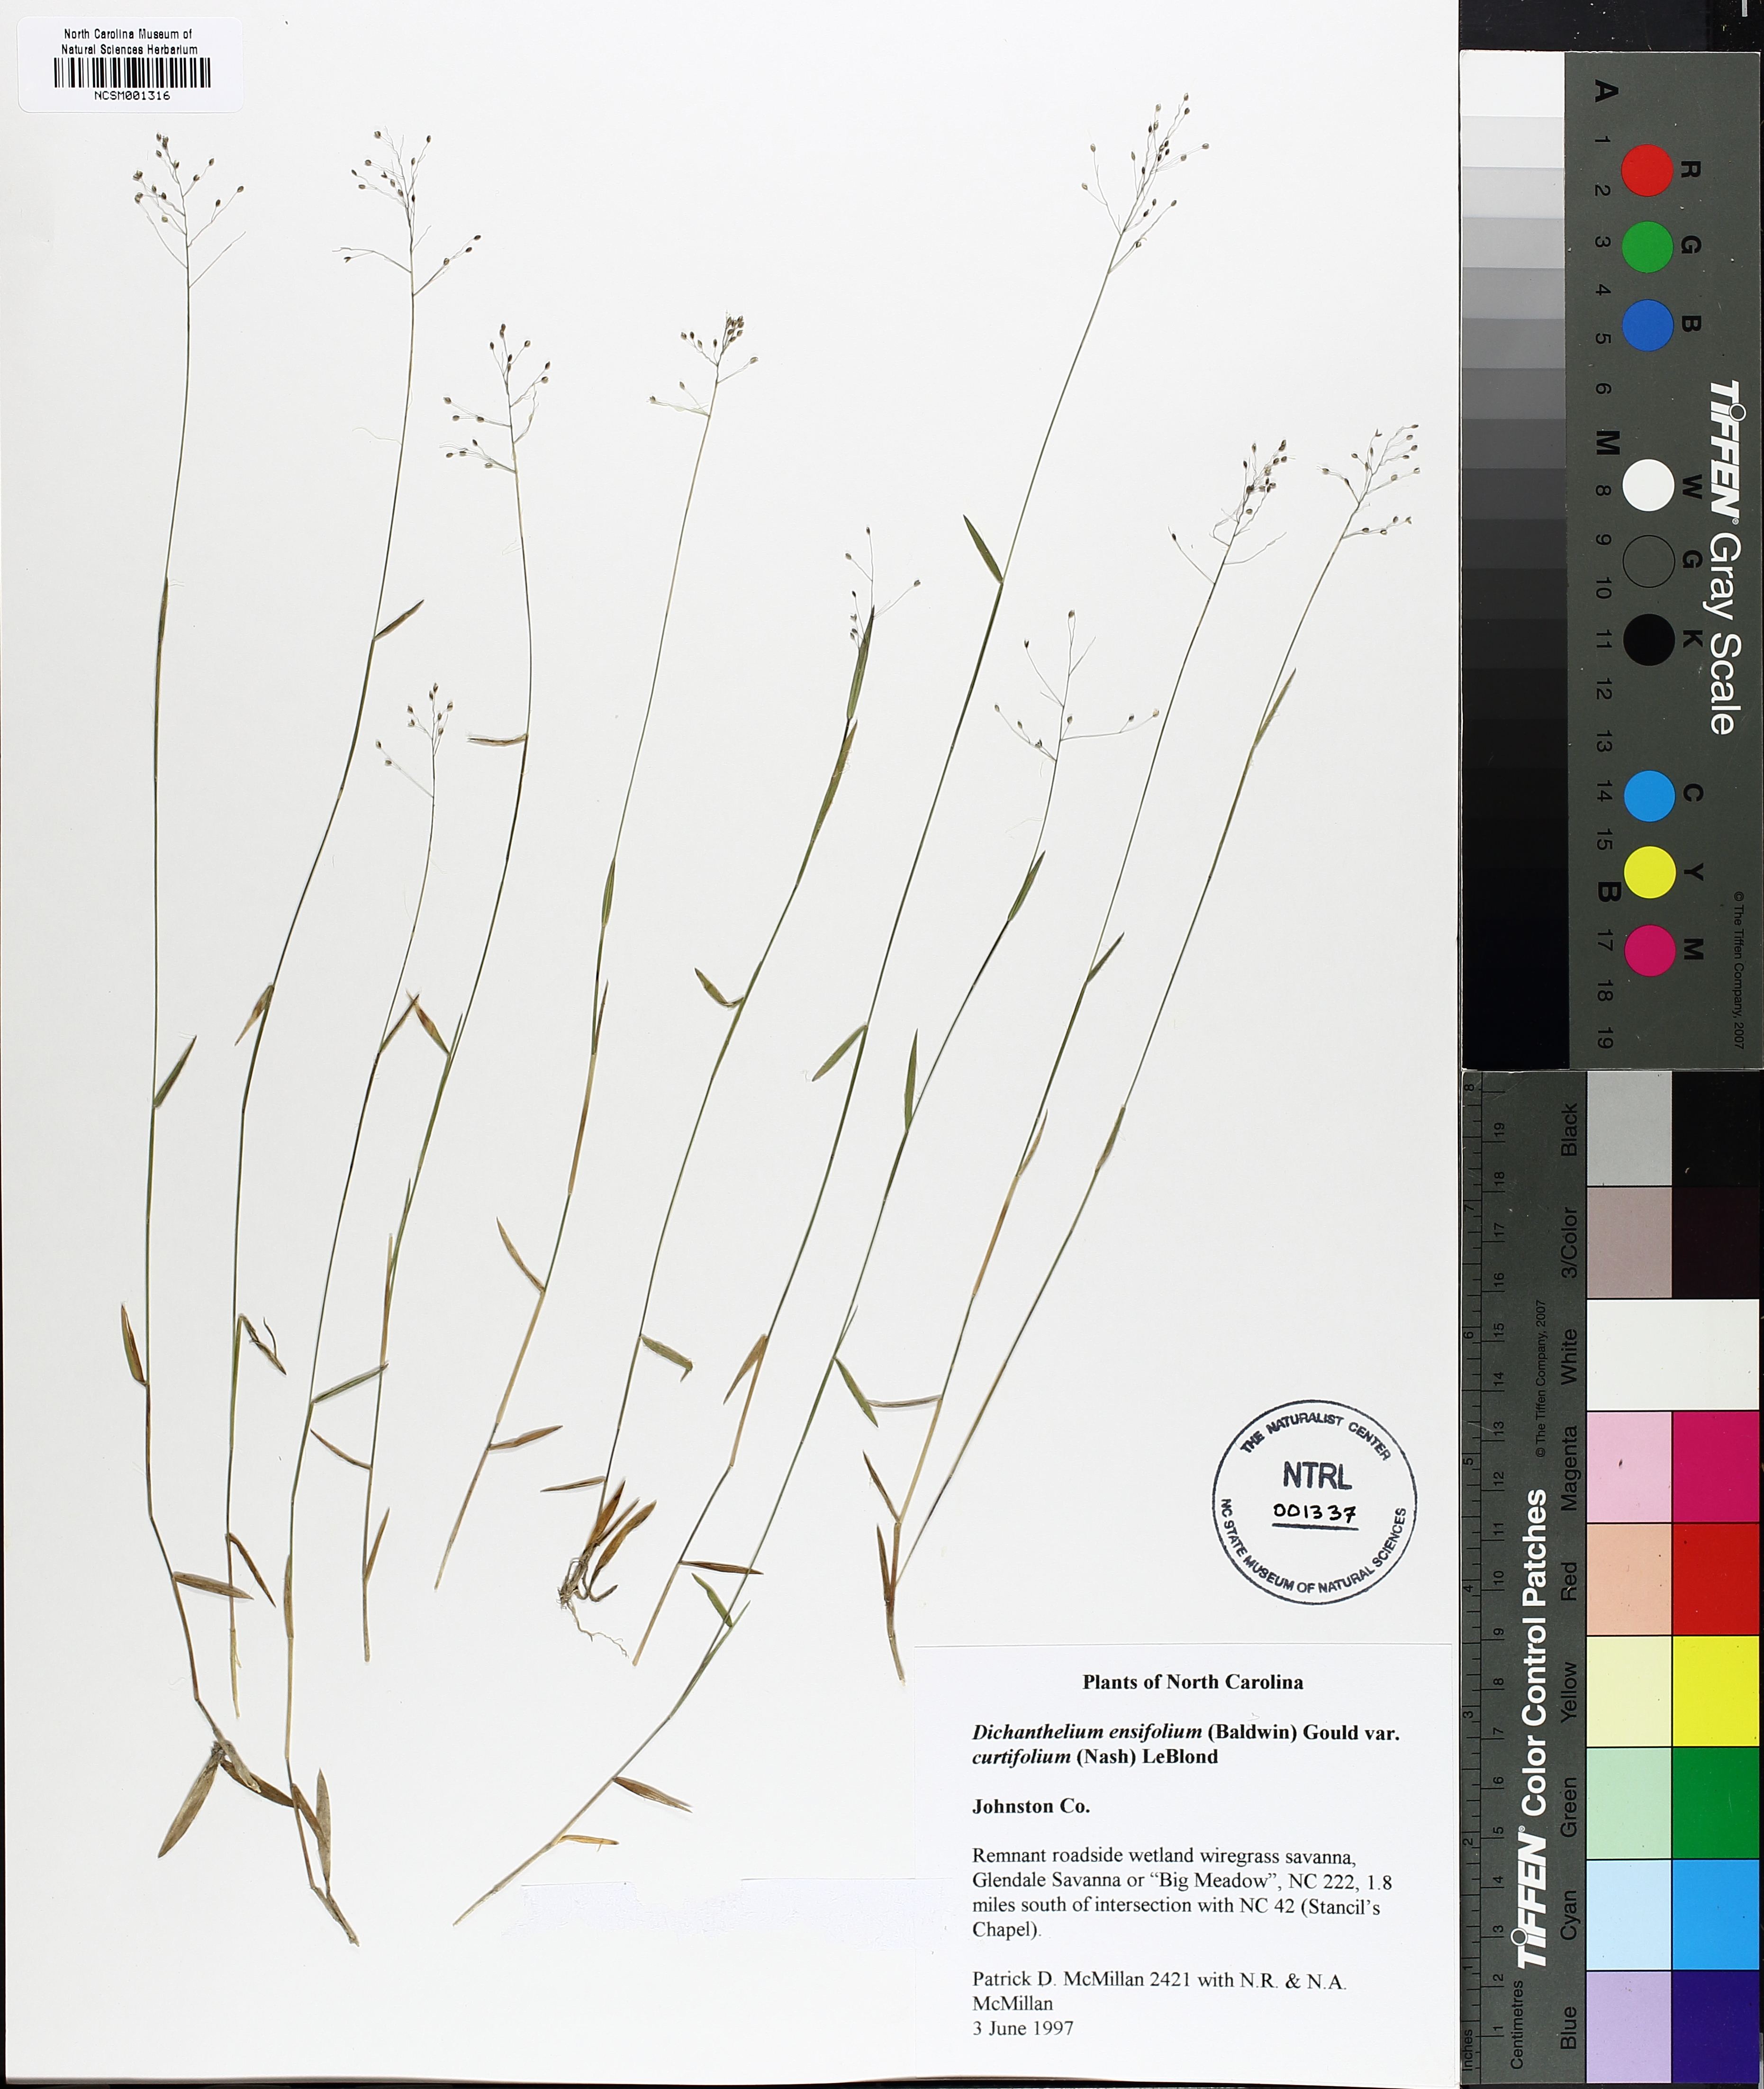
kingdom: Plantae
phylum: Tracheophyta
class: Liliopsida
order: Poales
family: Poaceae
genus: Dichanthelium
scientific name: Dichanthelium curtifolium
